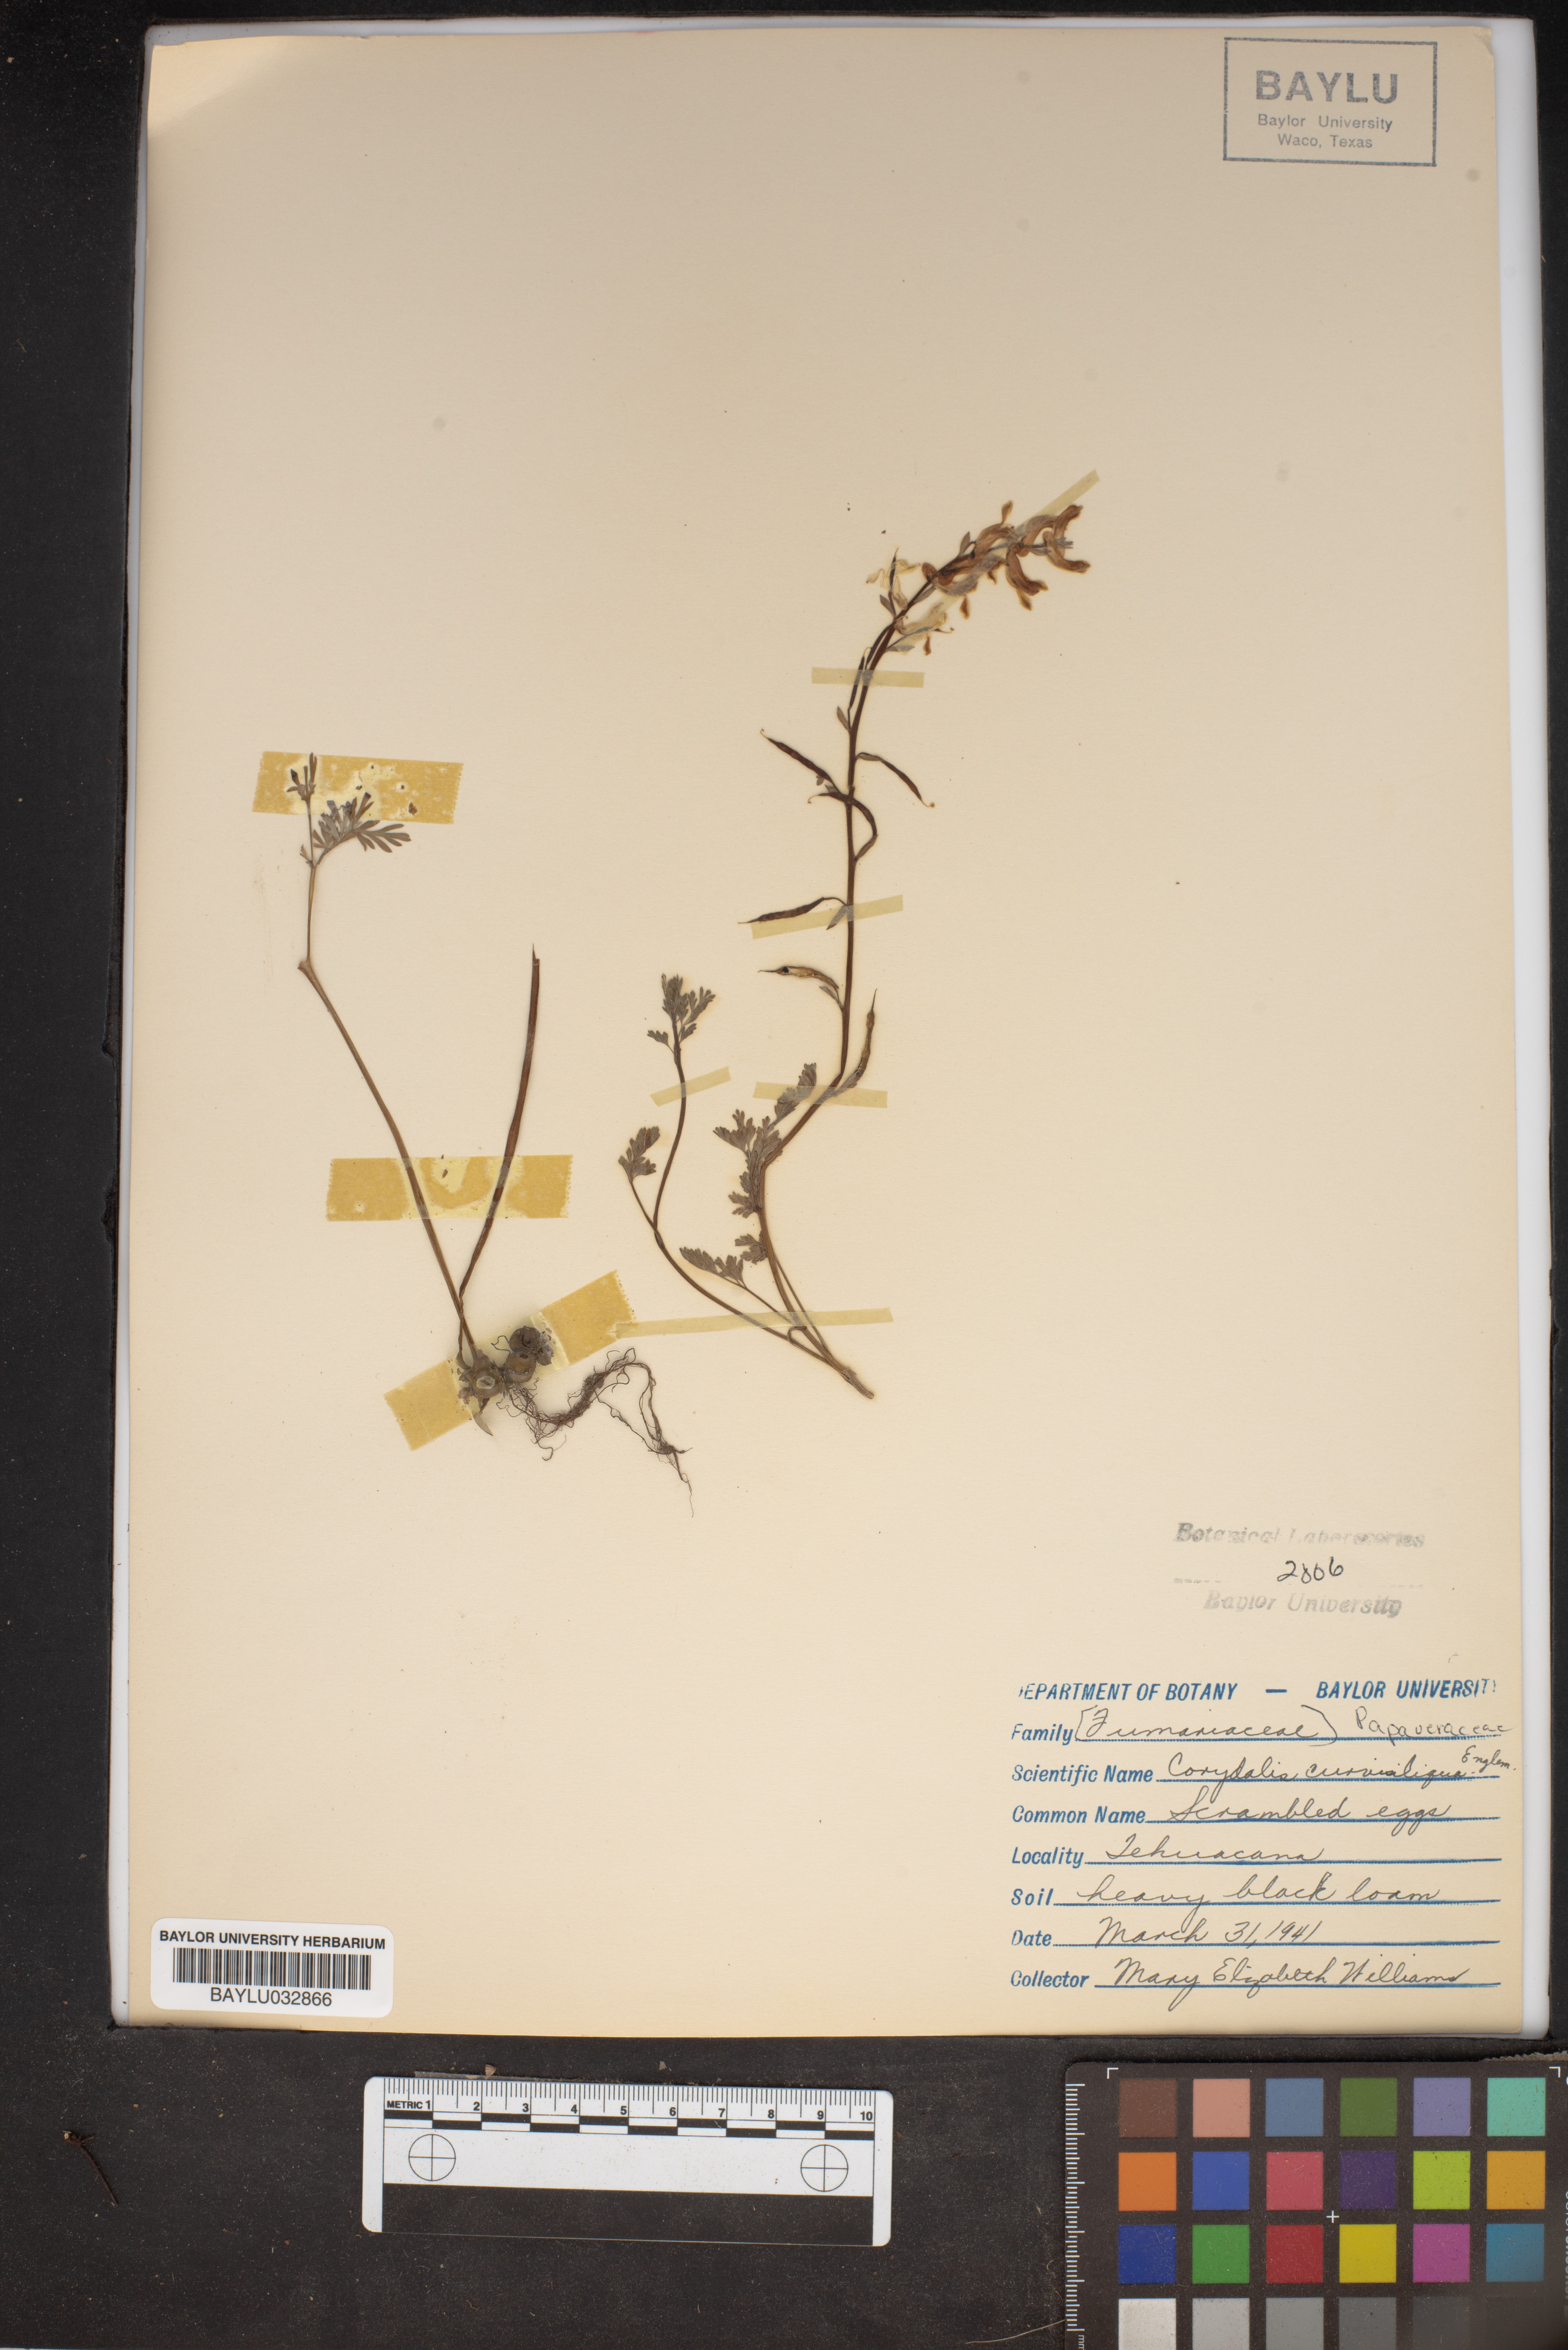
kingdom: Plantae
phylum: Tracheophyta
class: Magnoliopsida
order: Ranunculales
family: Papaveraceae
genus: Corydalis
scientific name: Corydalis curvisiliqua
